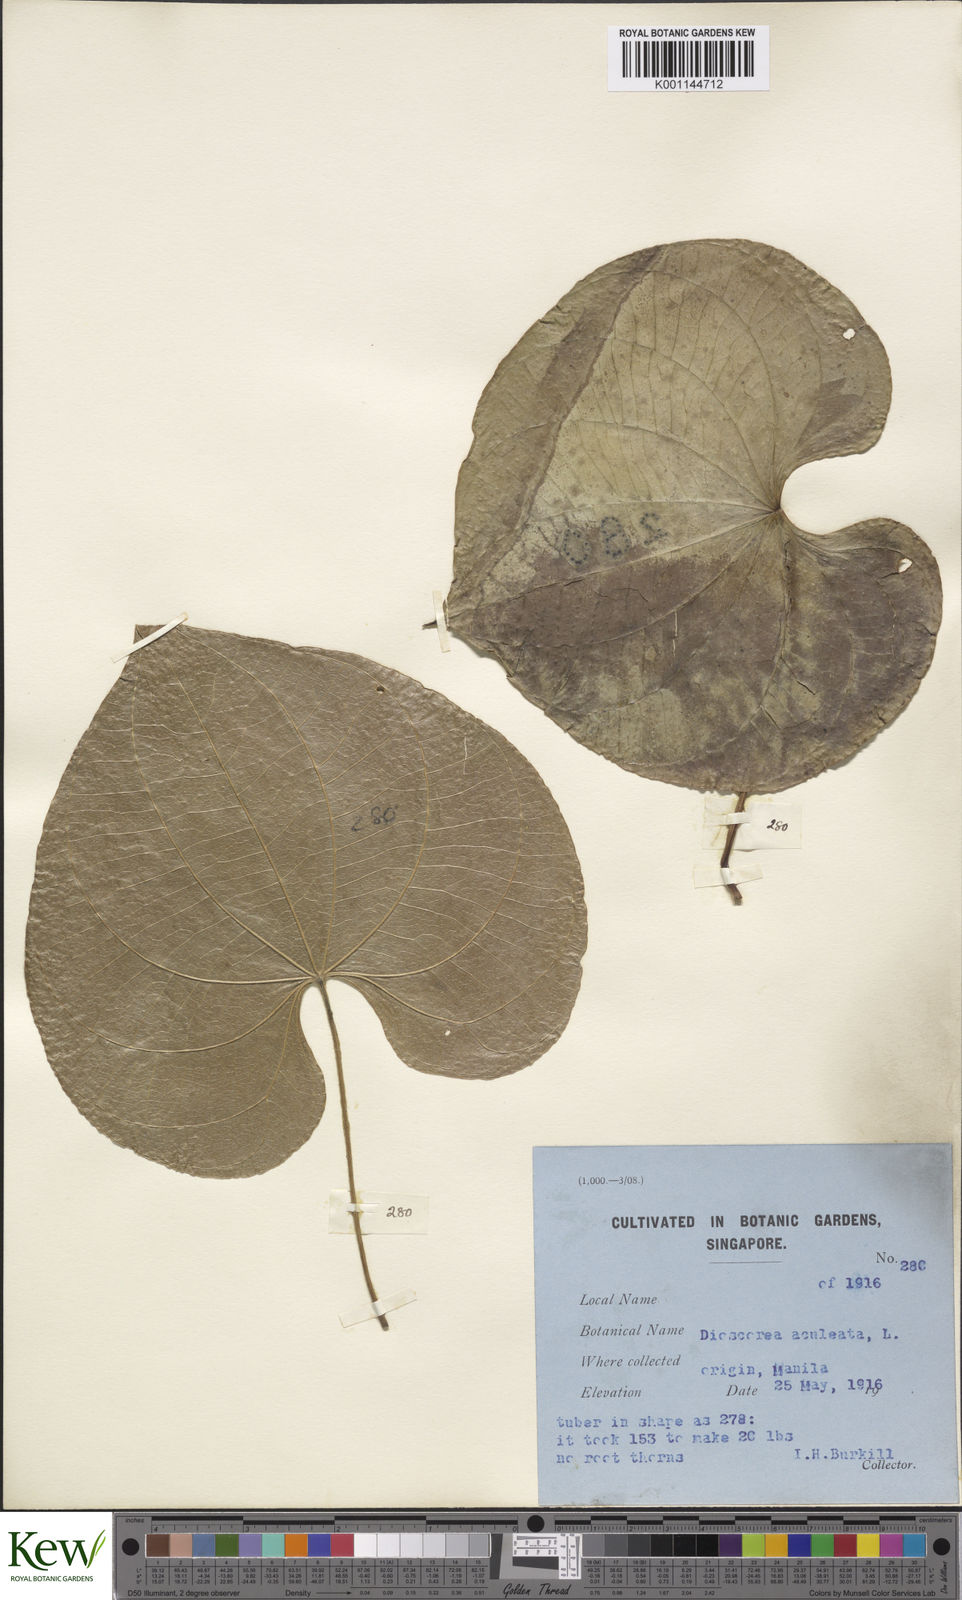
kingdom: Plantae
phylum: Tracheophyta
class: Liliopsida
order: Dioscoreales
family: Dioscoreaceae
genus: Dioscorea
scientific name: Dioscorea esculenta
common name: Chinese yam
